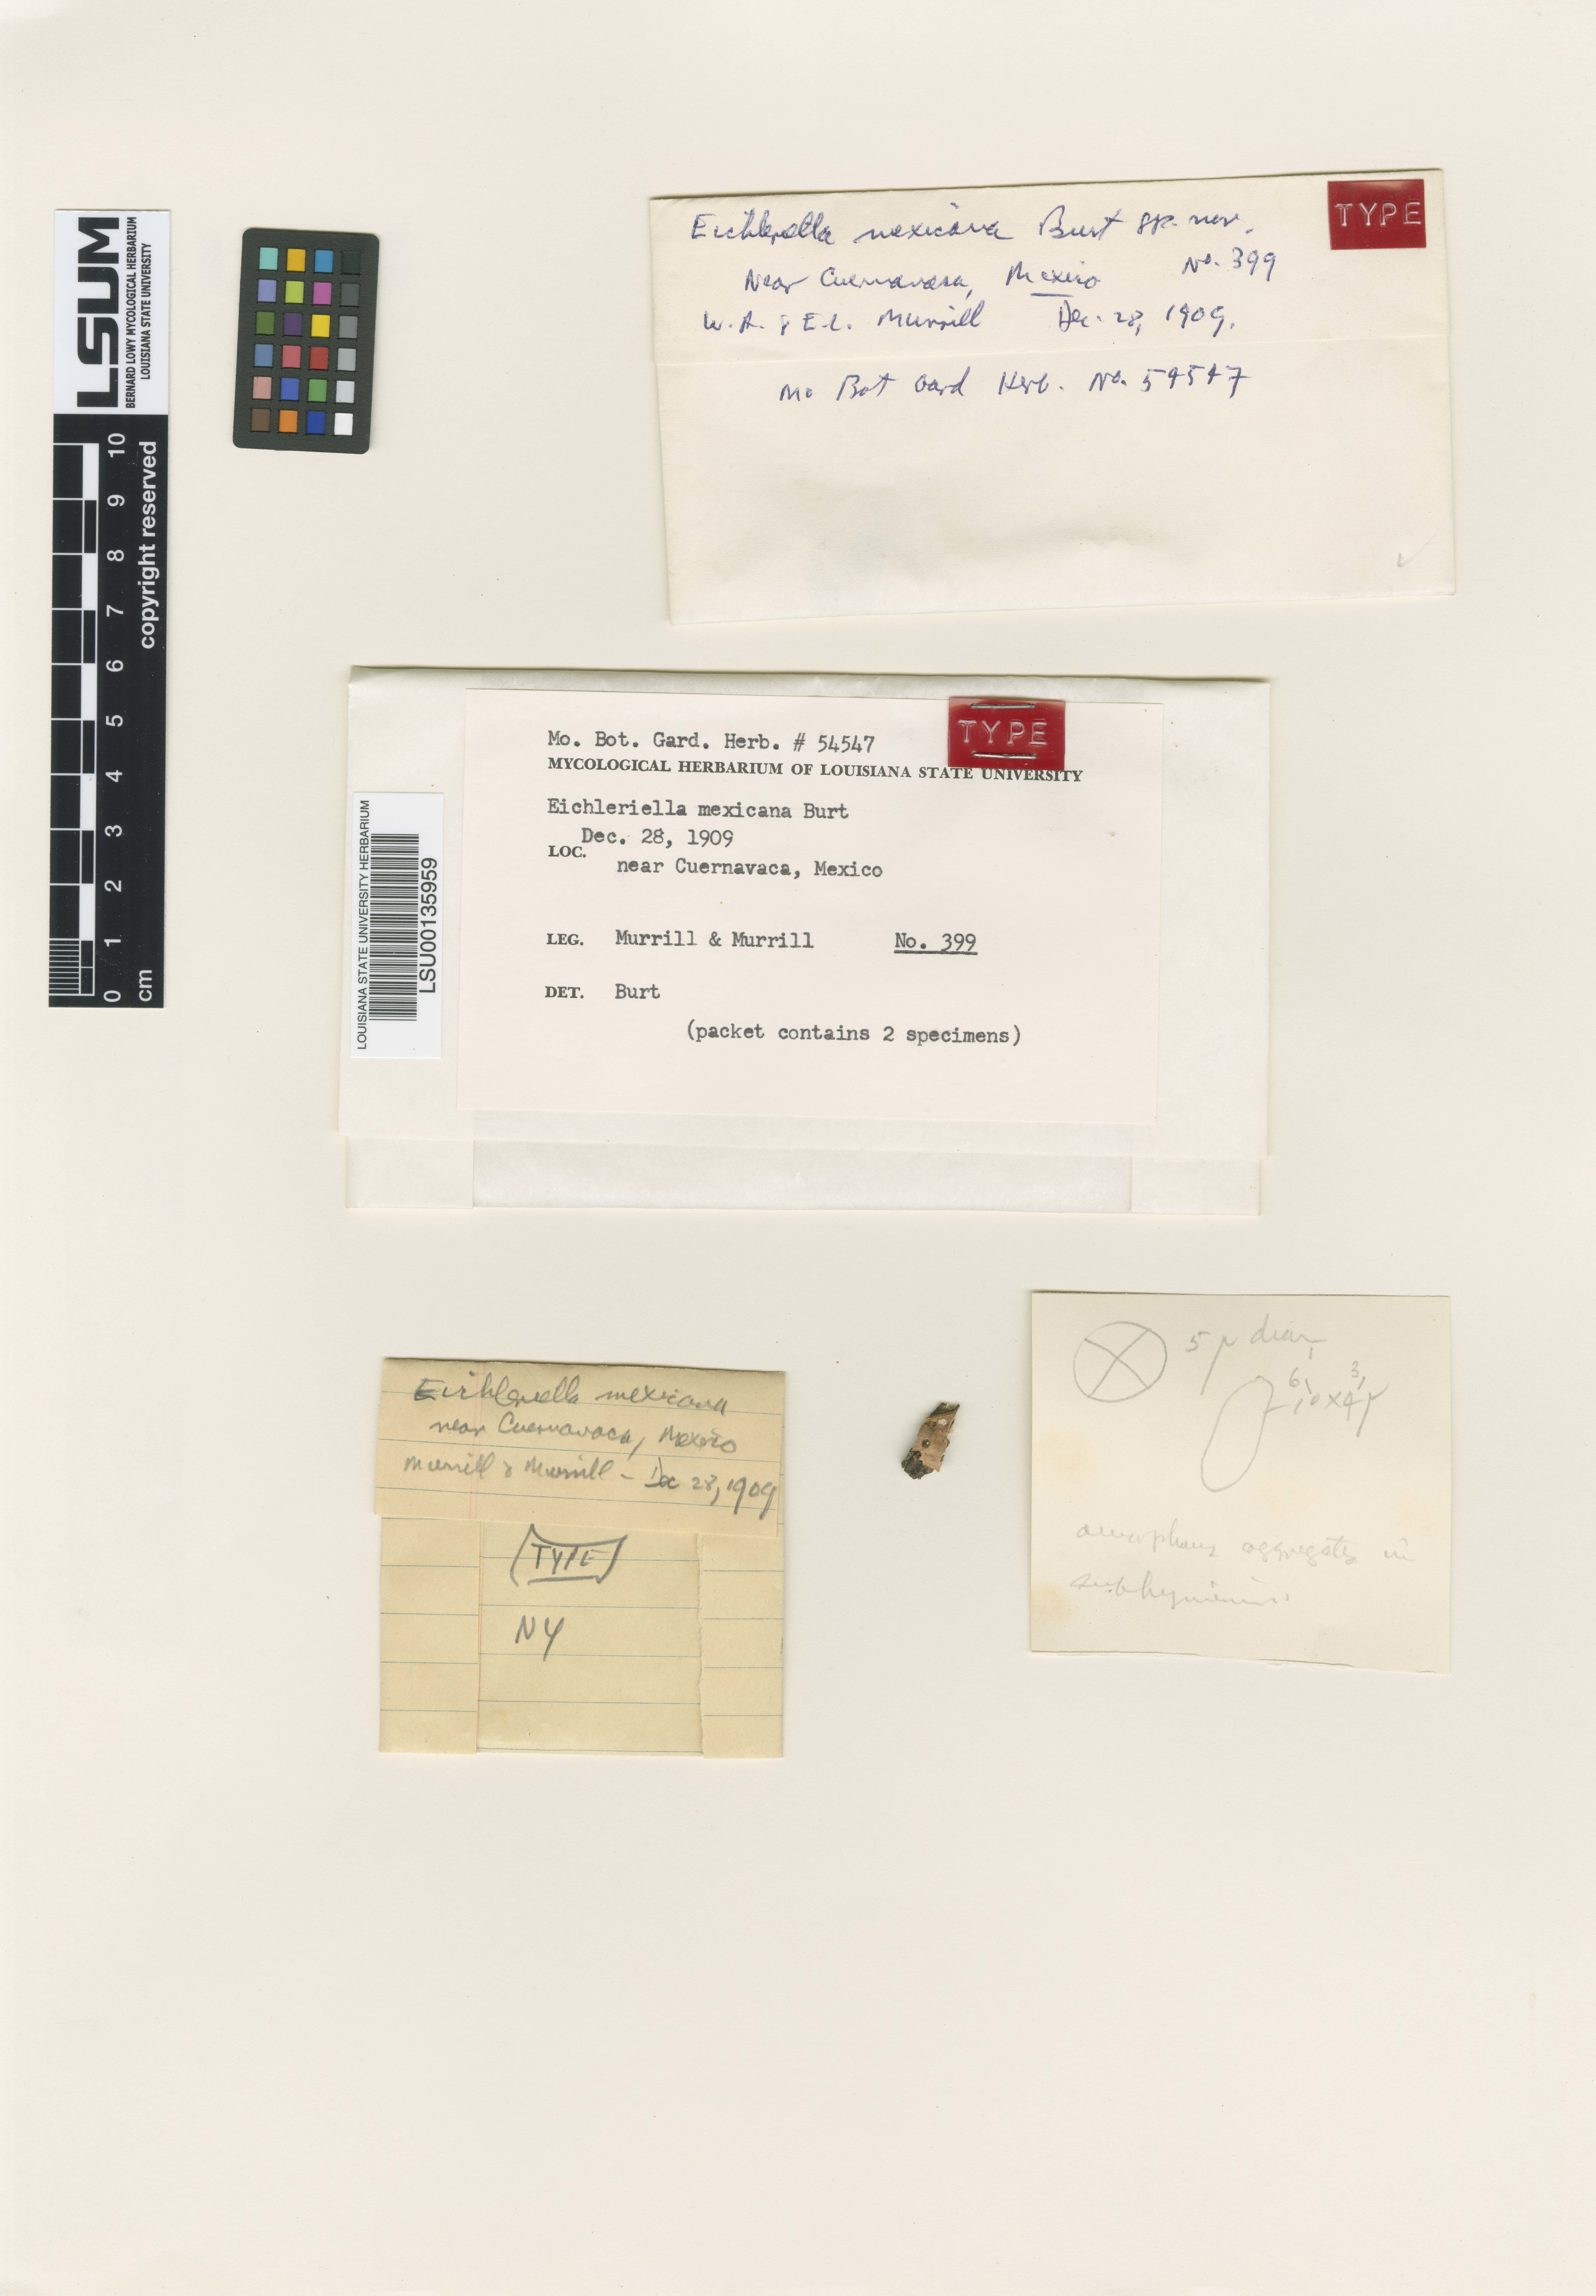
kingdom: Fungi
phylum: Basidiomycota
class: Agaricomycetes
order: Auriculariales
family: Auriculariaceae
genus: Eichleriella
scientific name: Eichleriella mexicana
